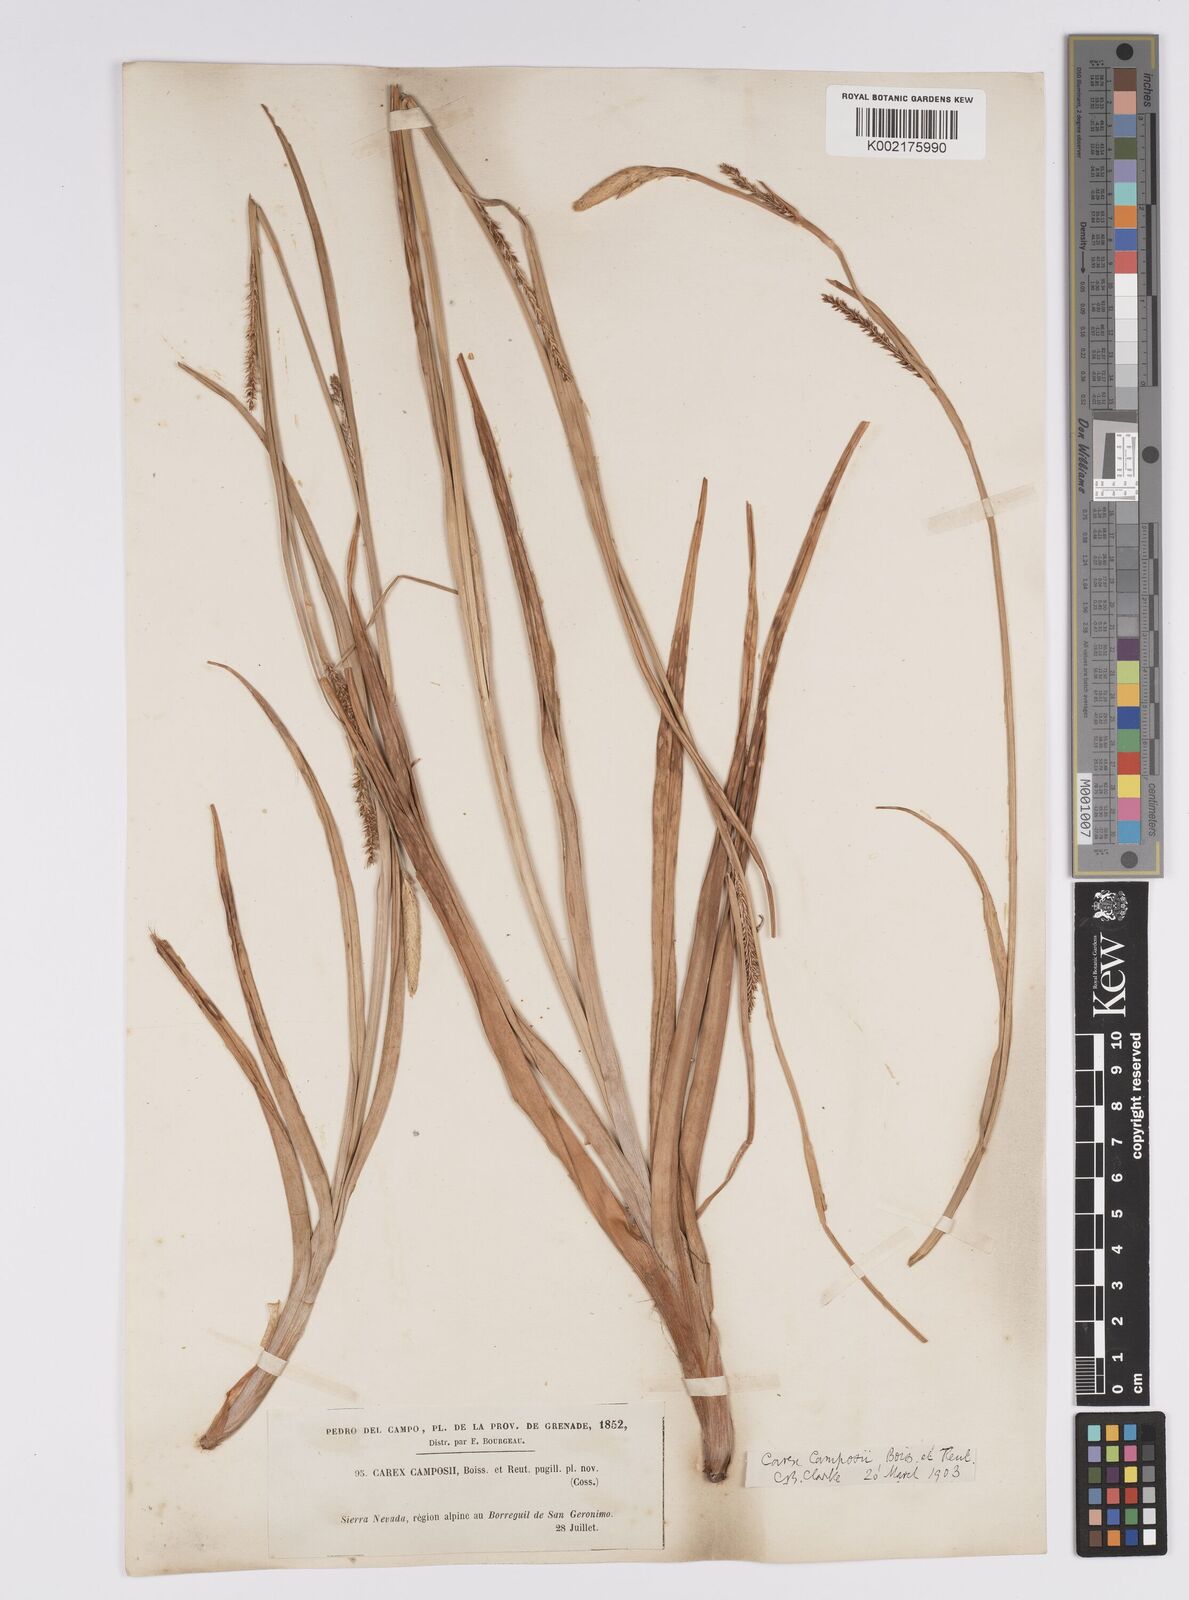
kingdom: Plantae
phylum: Tracheophyta
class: Liliopsida
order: Poales
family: Cyperaceae
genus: Carex
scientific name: Carex camposii
